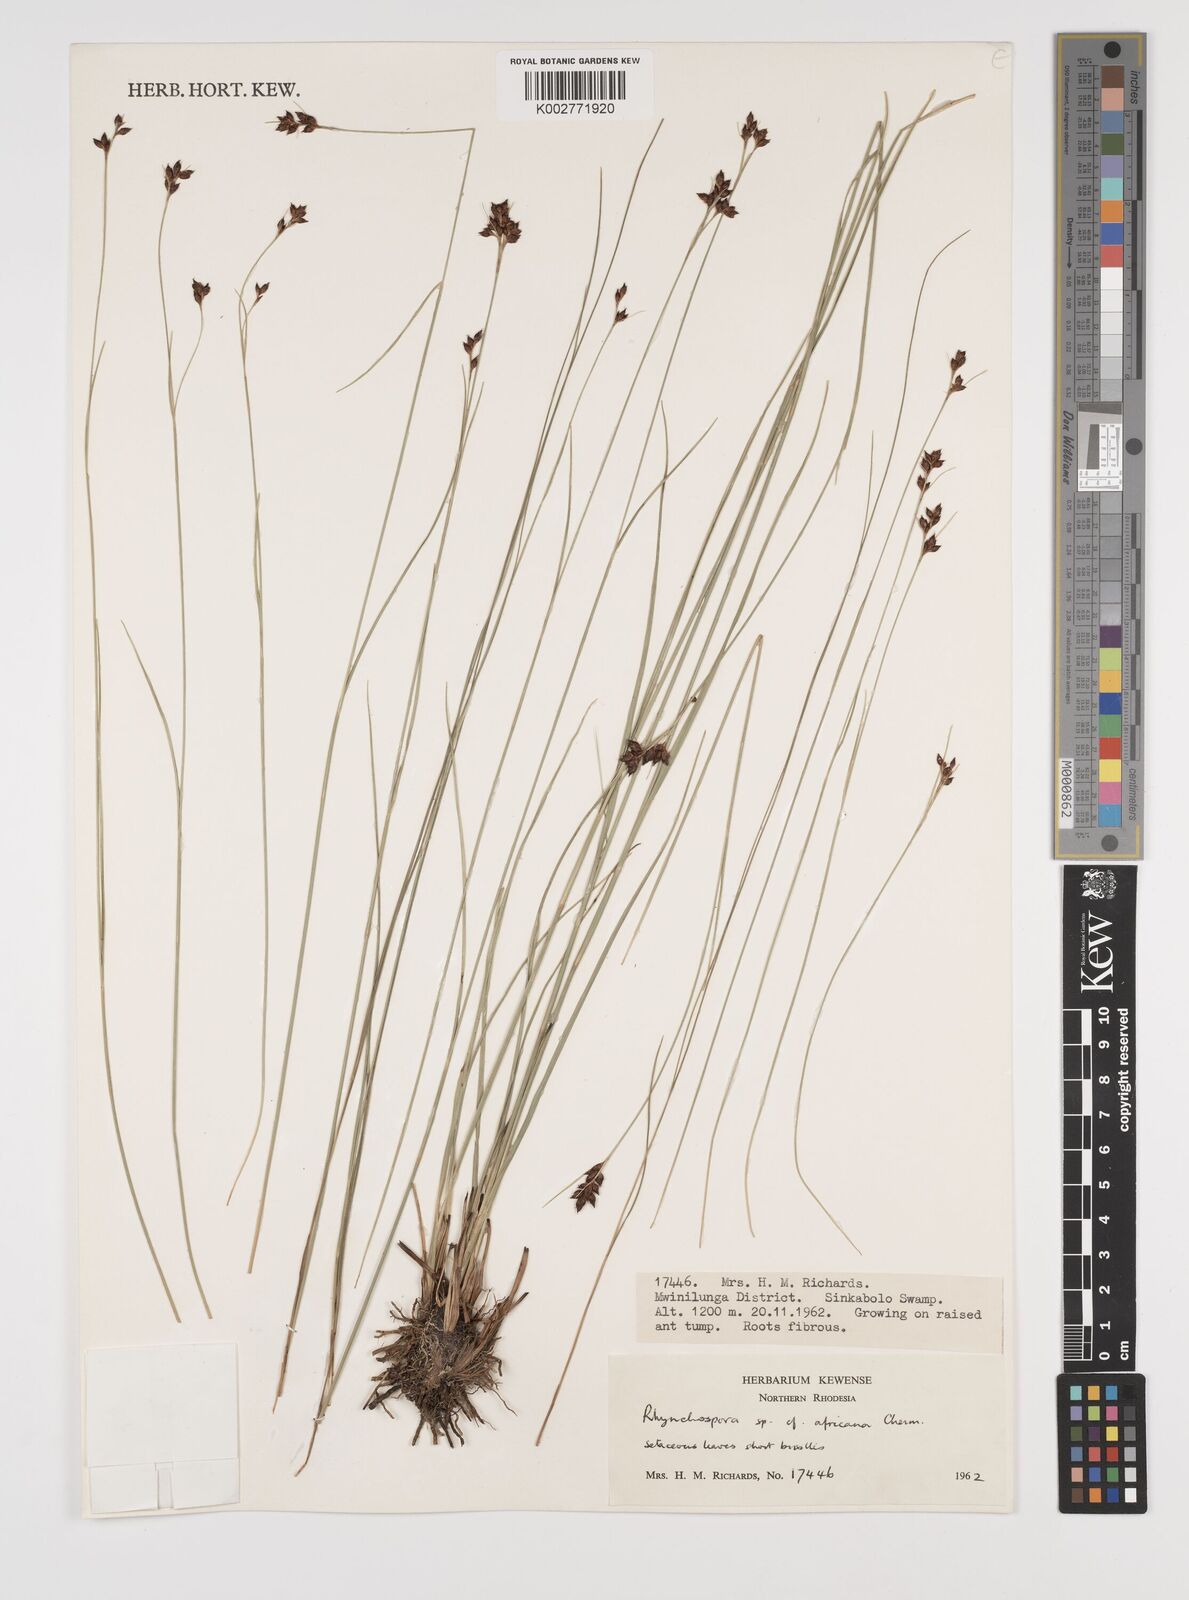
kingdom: Plantae
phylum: Tracheophyta
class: Liliopsida
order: Poales
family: Cyperaceae
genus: Rhynchospora
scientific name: Rhynchospora angolensis
